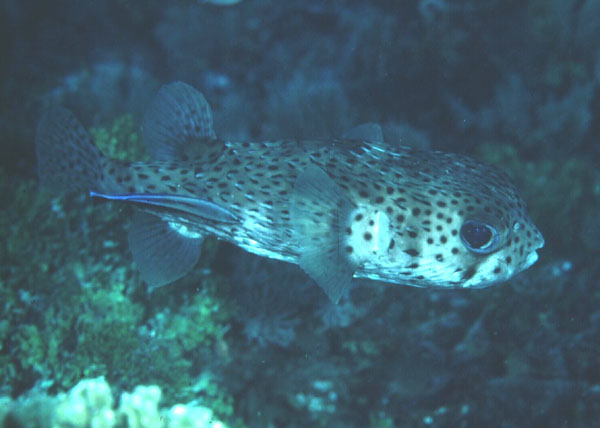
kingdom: Animalia
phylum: Chordata
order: Tetraodontiformes
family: Diodontidae
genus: Diodon
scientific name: Diodon hystrix
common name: Giant porcupinefish
